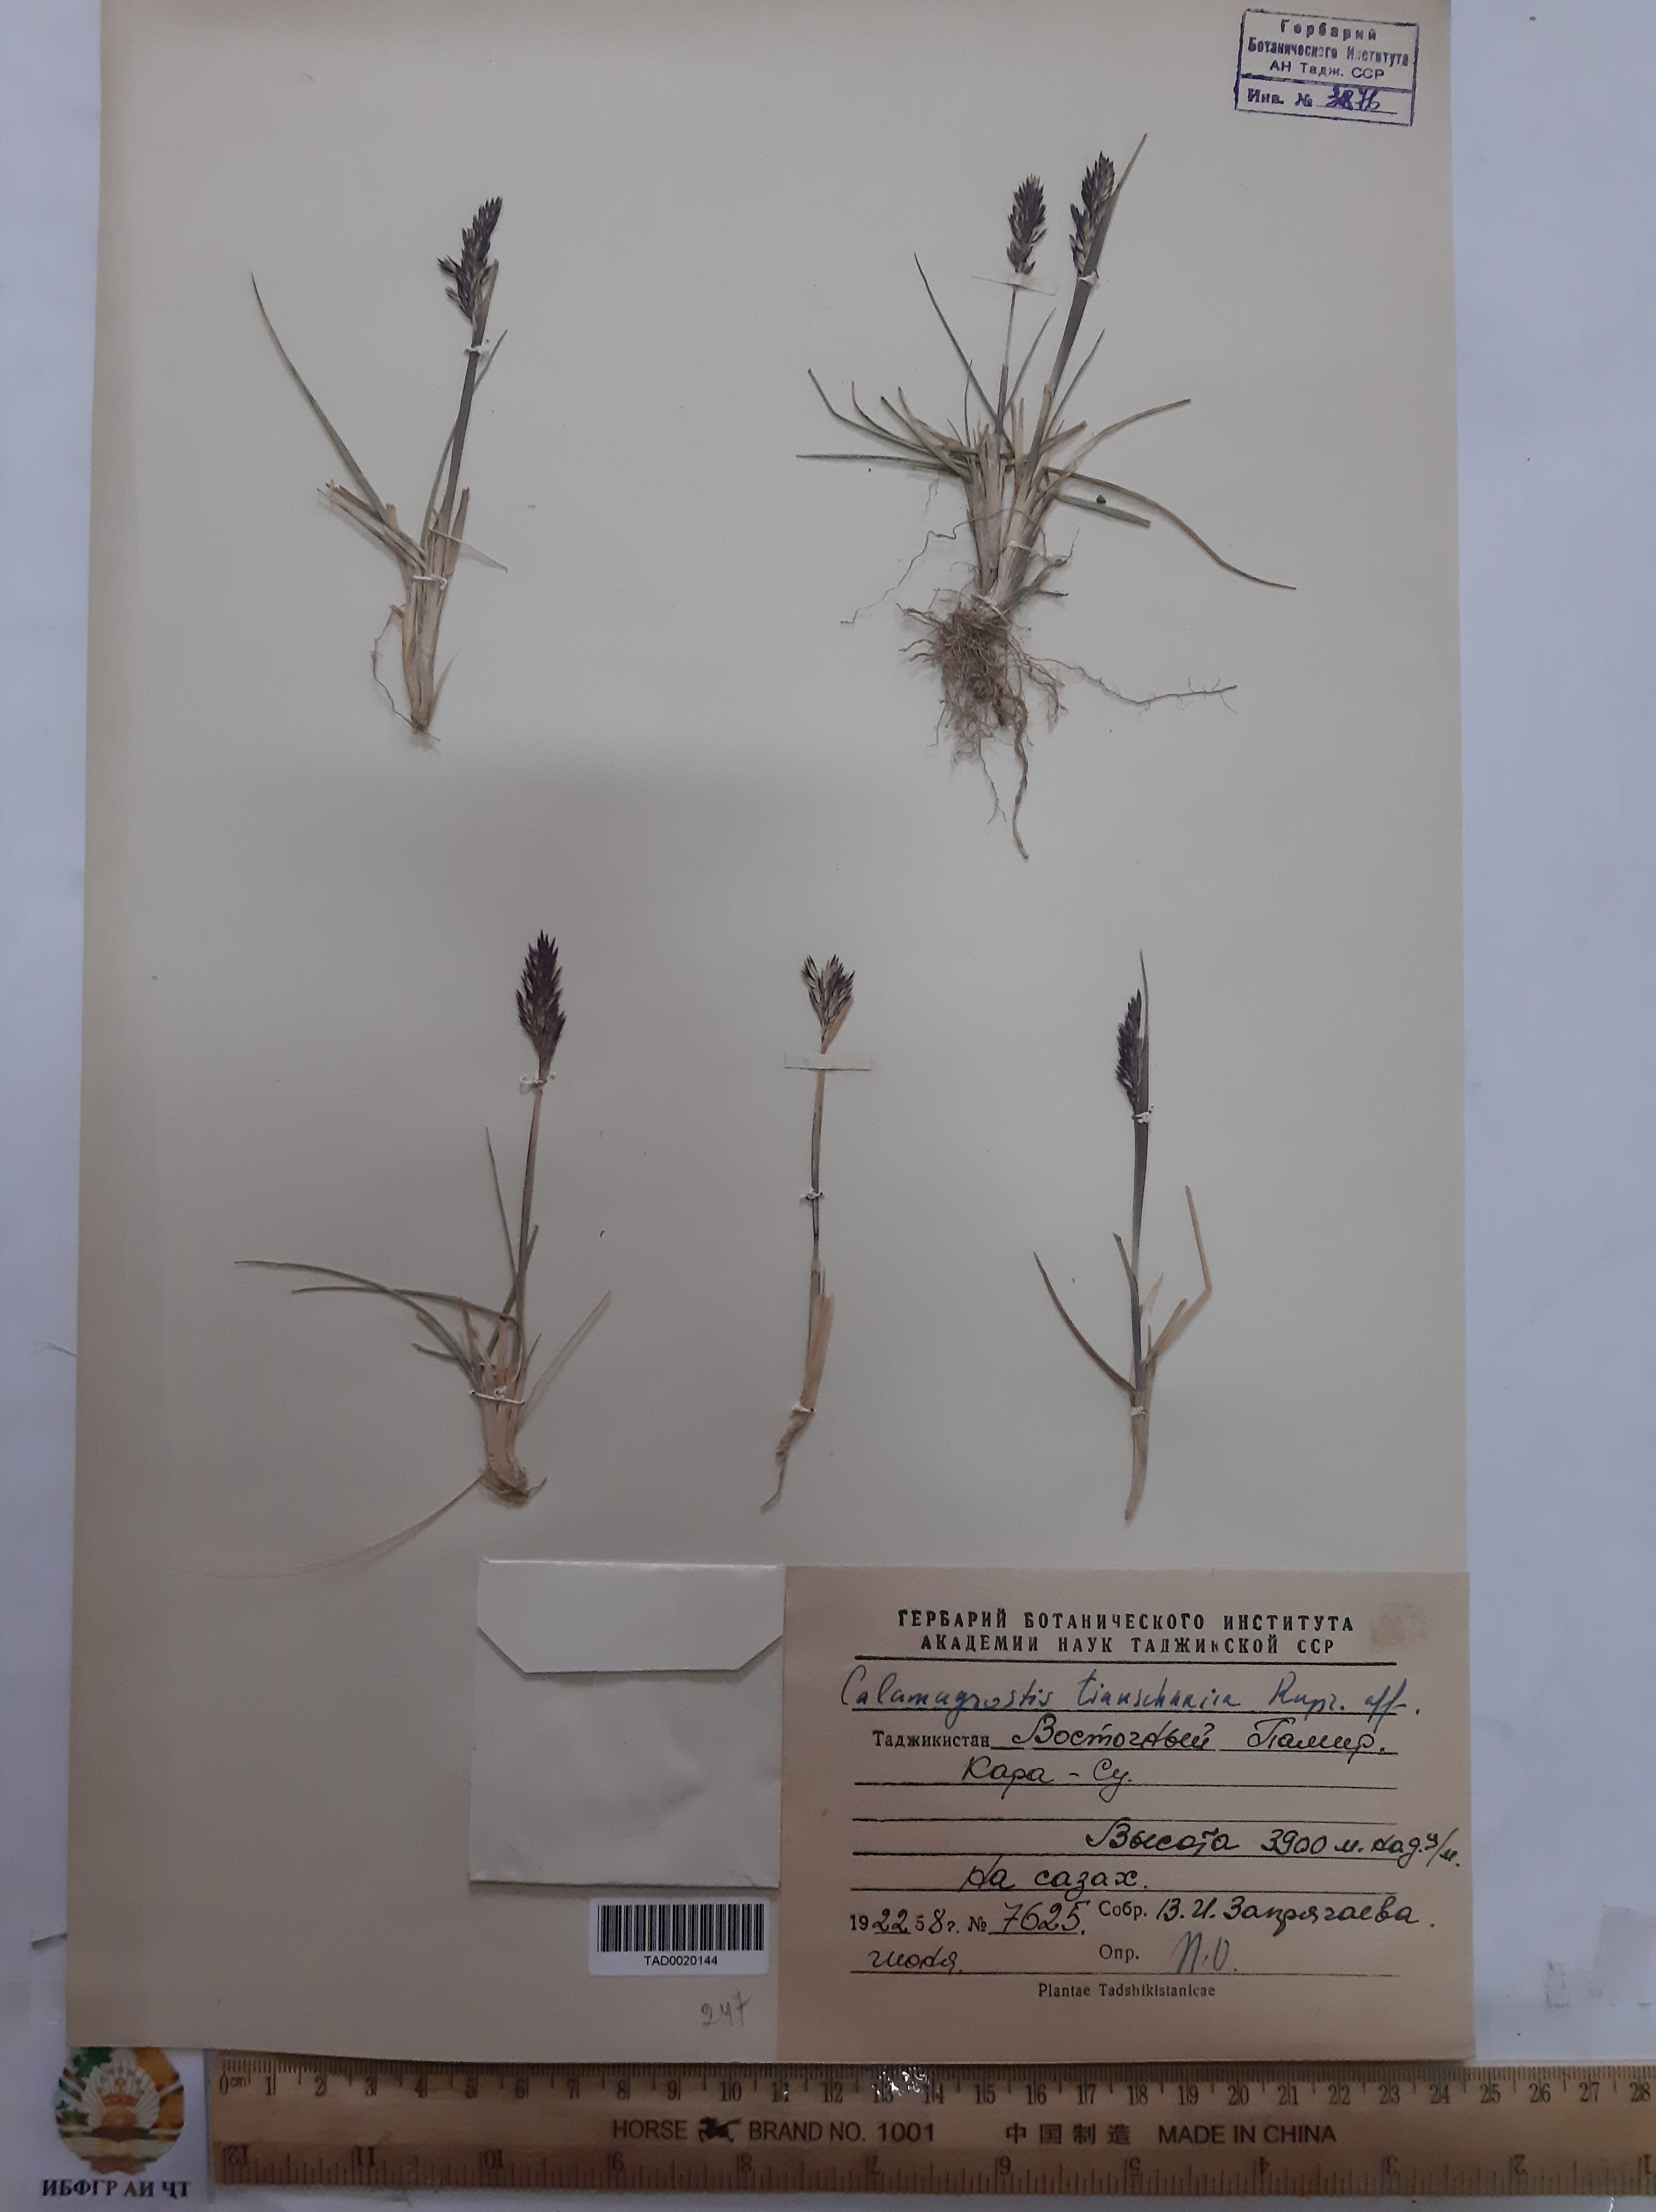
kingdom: Plantae
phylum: Tracheophyta
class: Liliopsida
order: Poales
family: Poaceae
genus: Calamagrostis
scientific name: Calamagrostis tianschanica
